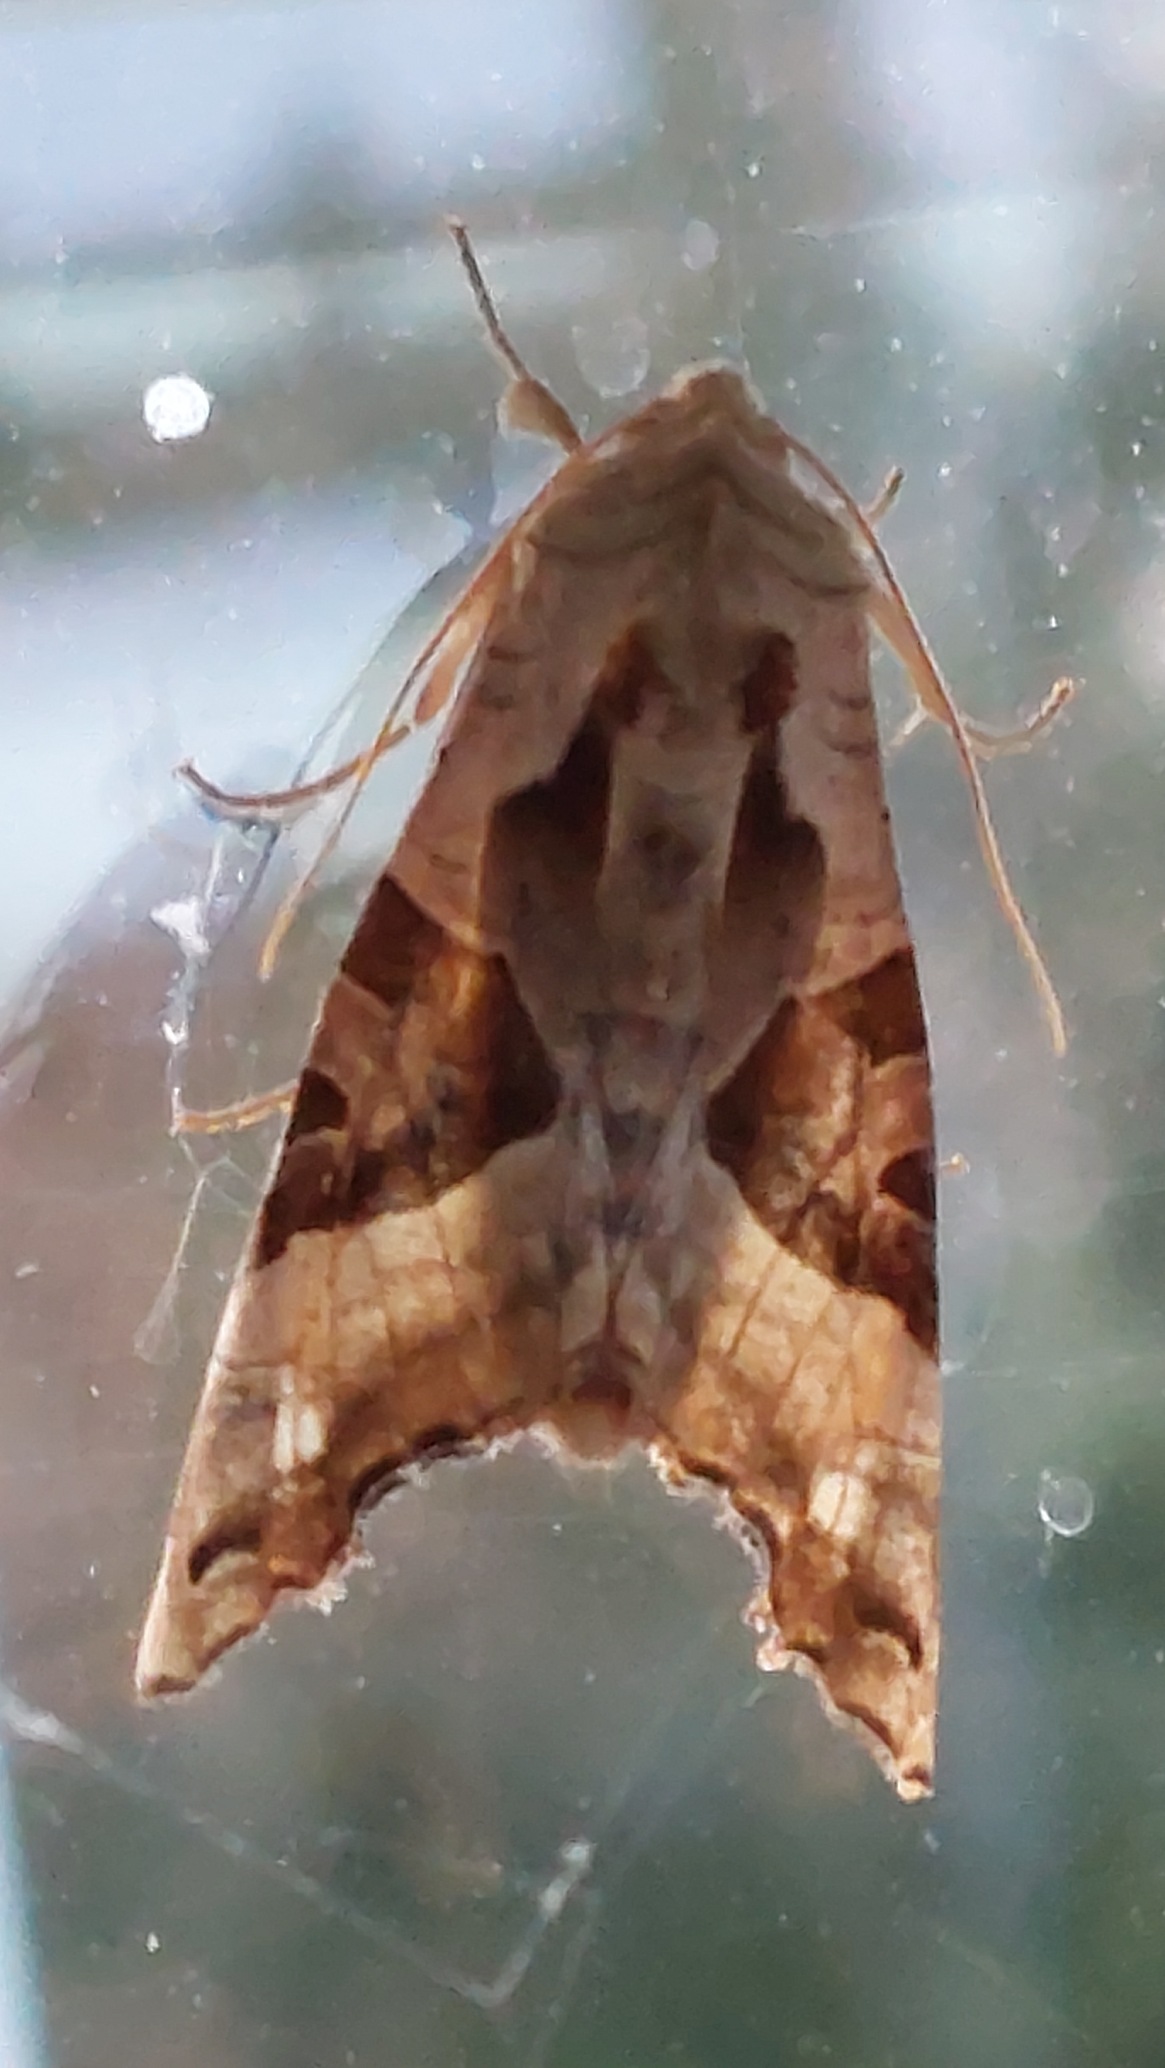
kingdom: Animalia
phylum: Arthropoda
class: Insecta
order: Lepidoptera
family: Noctuidae
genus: Phlogophora
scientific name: Phlogophora meticulosa
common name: Agatugle
